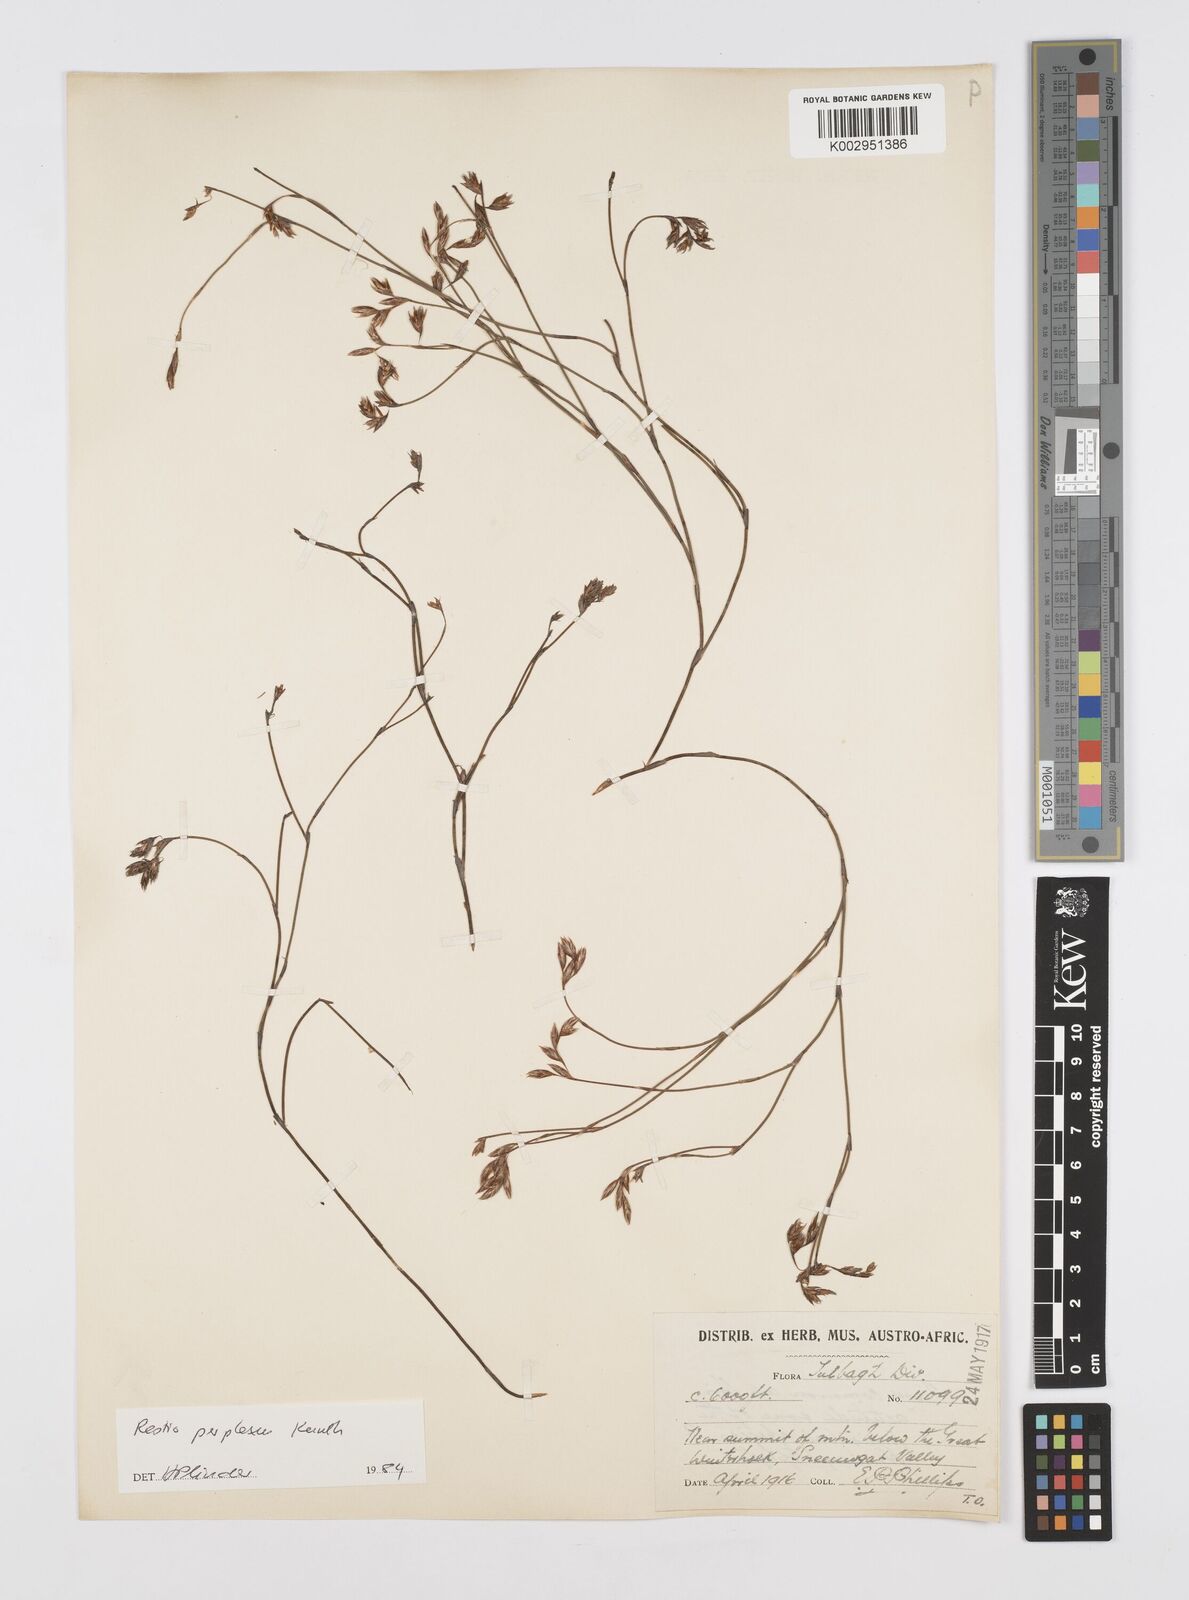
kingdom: Plantae
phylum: Tracheophyta
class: Liliopsida
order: Poales
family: Restionaceae
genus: Restio
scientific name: Restio perplexus
